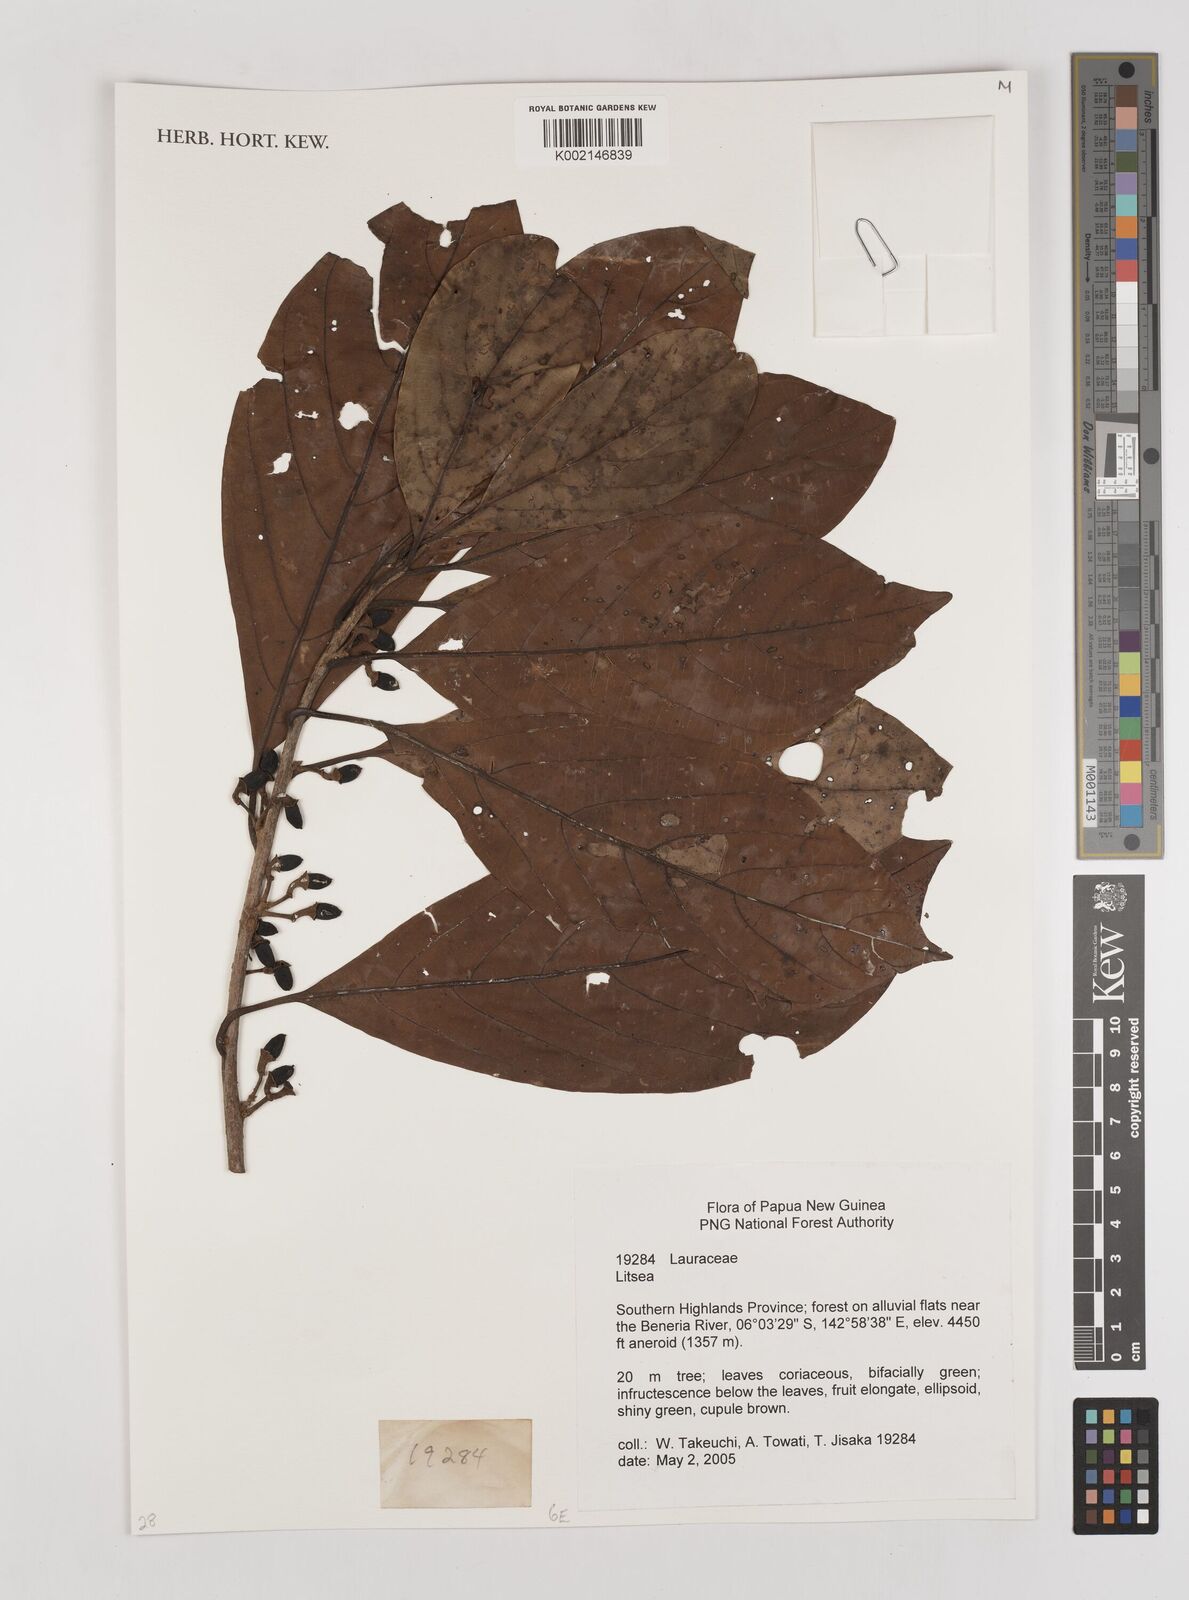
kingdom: Plantae
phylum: Tracheophyta
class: Magnoliopsida
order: Laurales
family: Lauraceae
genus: Litsea
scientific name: Litsea
